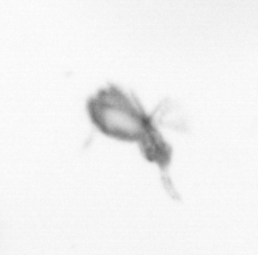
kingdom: Animalia
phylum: Arthropoda
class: Copepoda
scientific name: Copepoda
